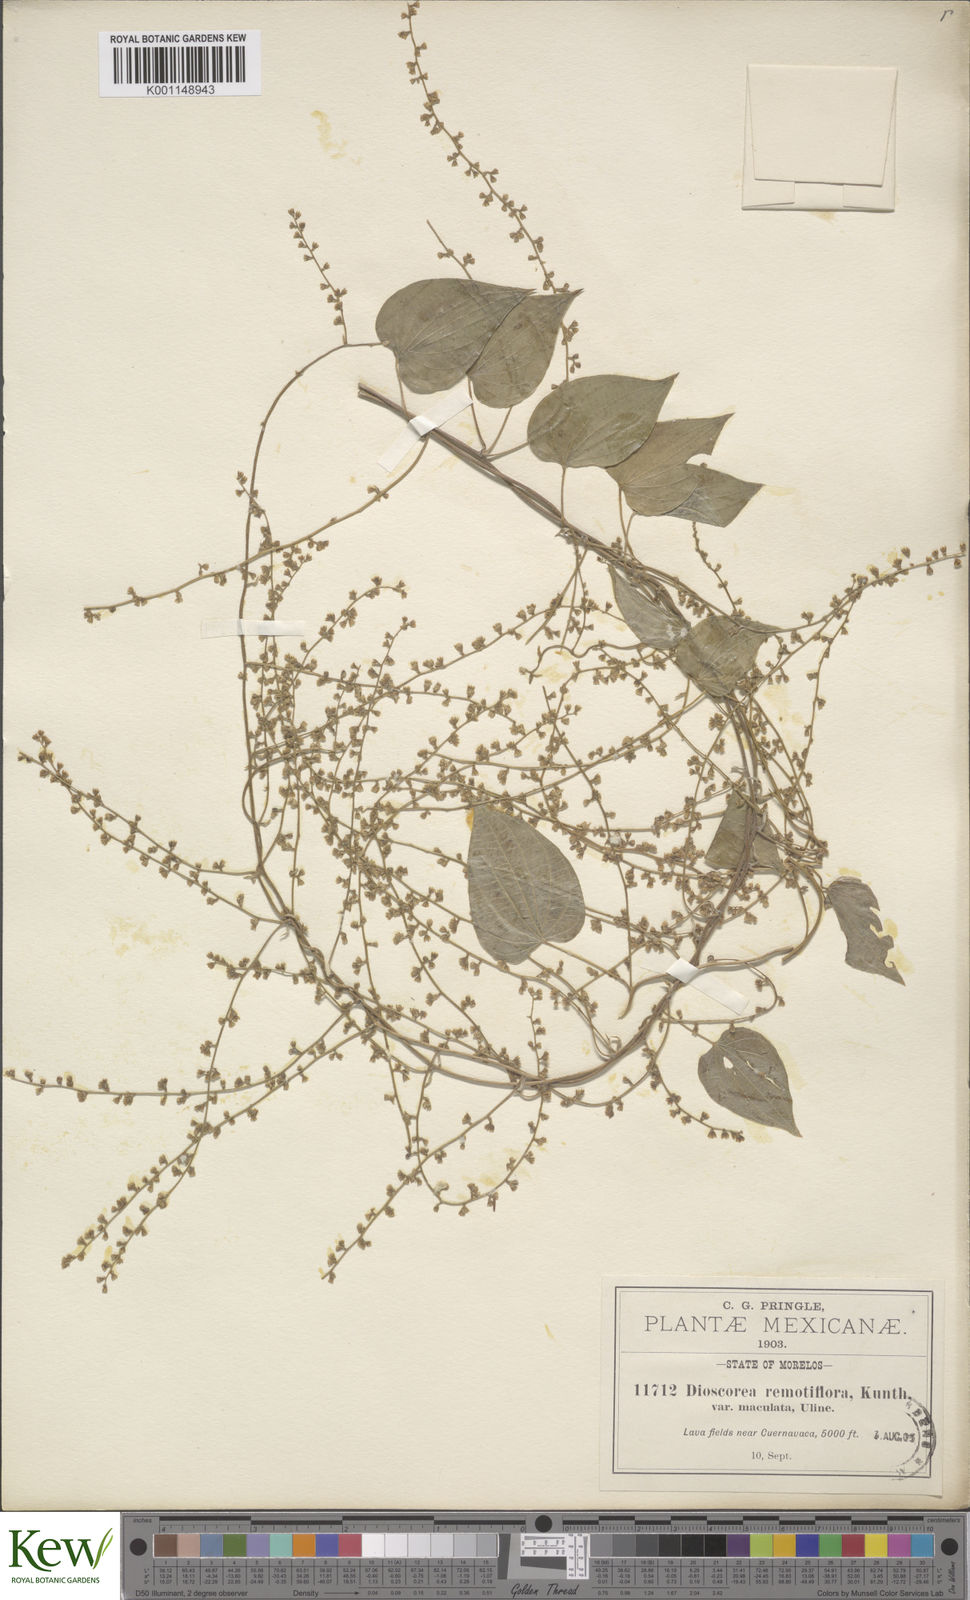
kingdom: Plantae
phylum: Tracheophyta
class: Liliopsida
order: Dioscoreales
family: Dioscoreaceae
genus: Dioscorea
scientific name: Dioscorea remotiflora
